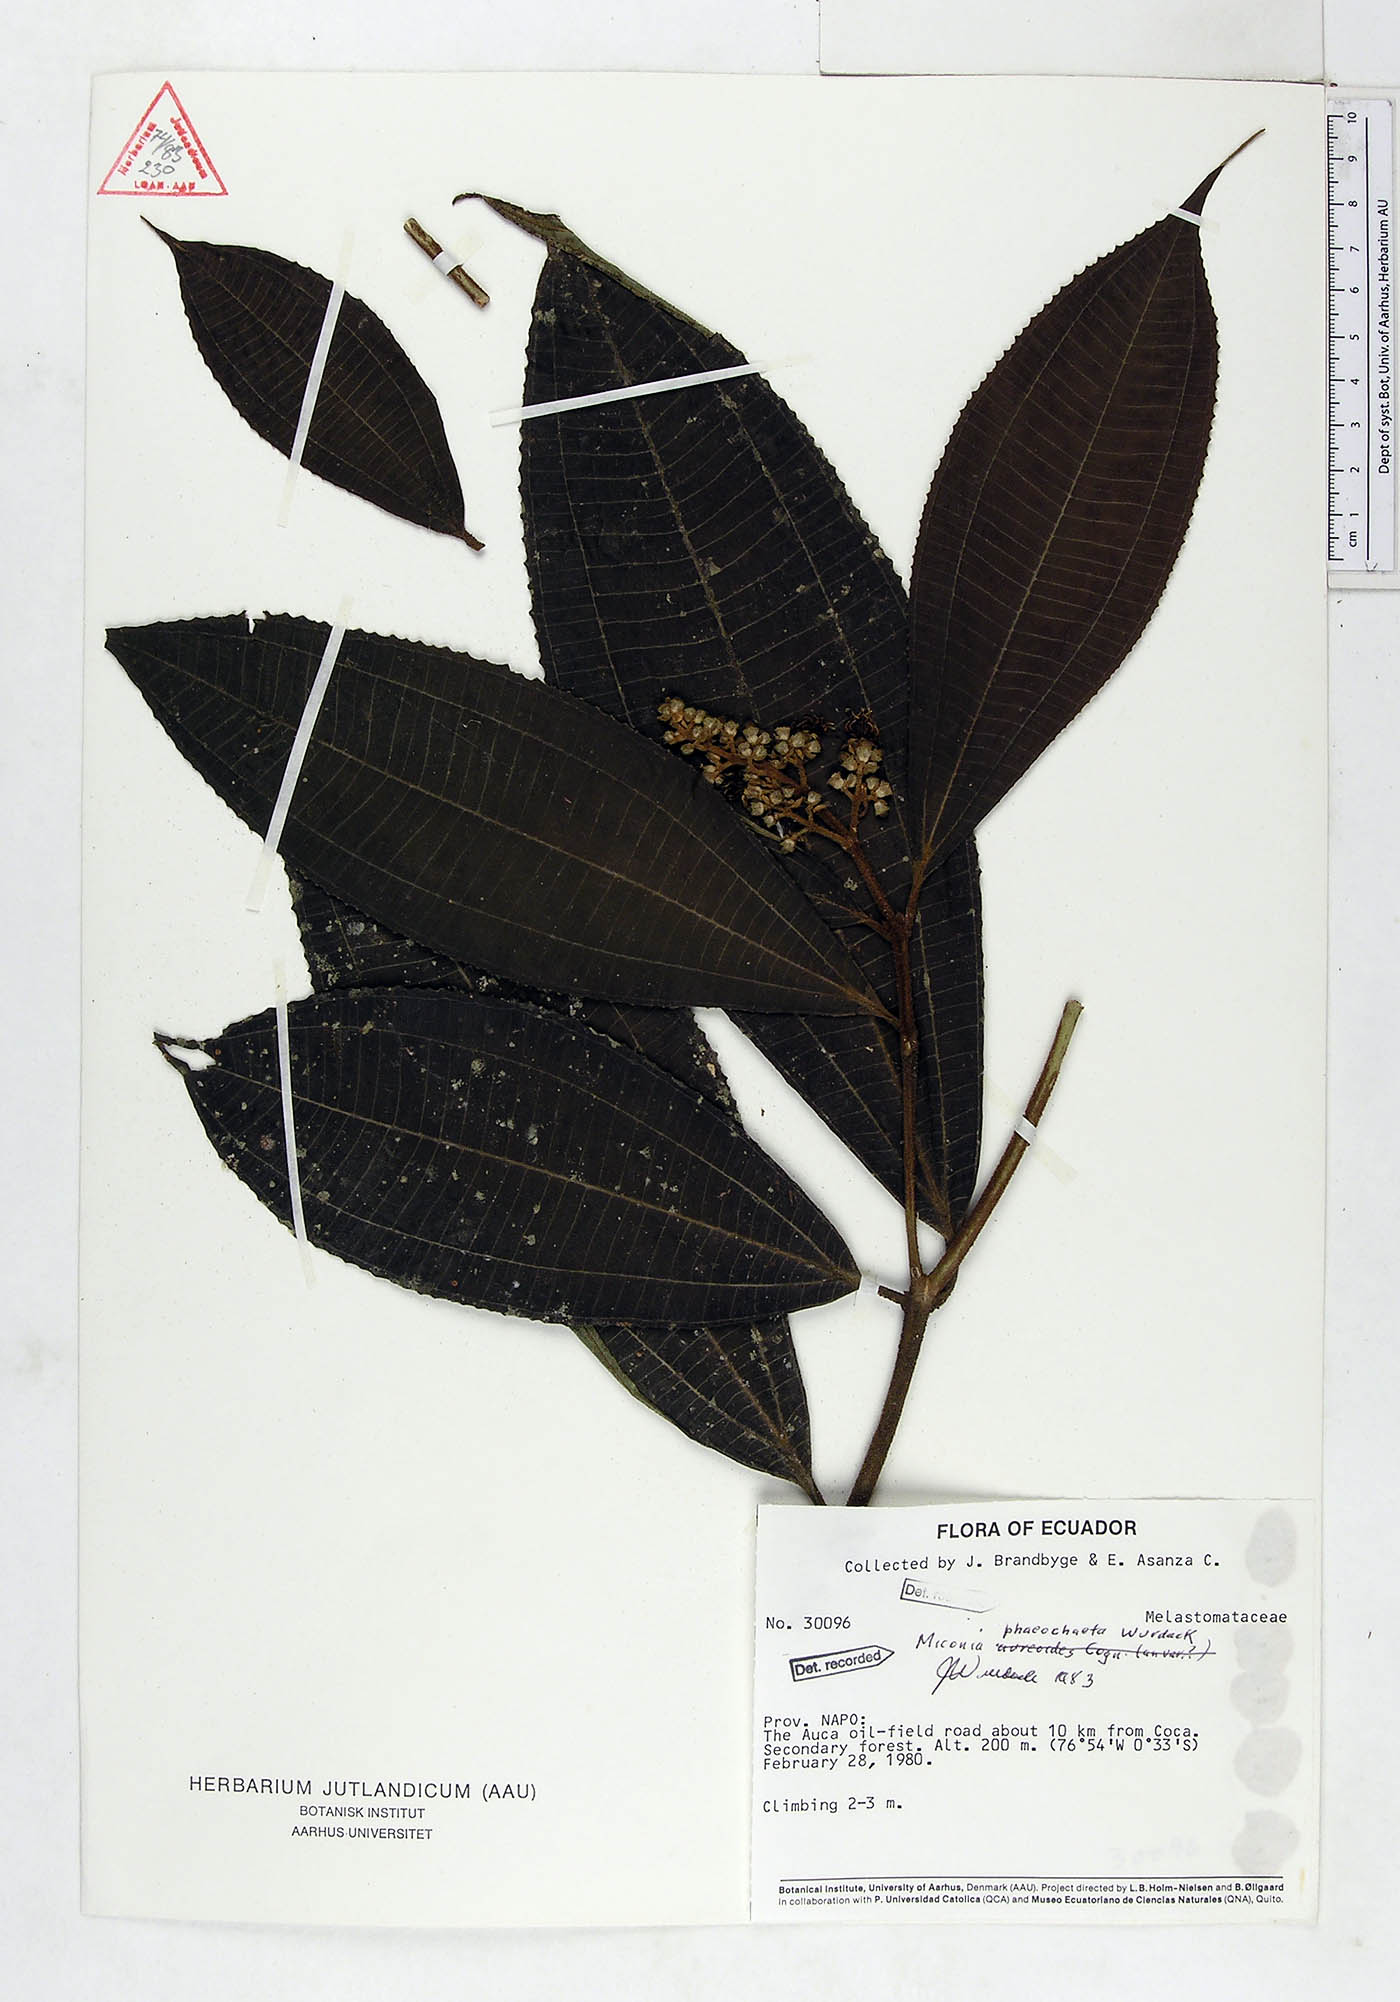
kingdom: Plantae
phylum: Tracheophyta
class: Magnoliopsida
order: Myrtales
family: Melastomataceae
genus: Miconia
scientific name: Miconia phaeochaeta
